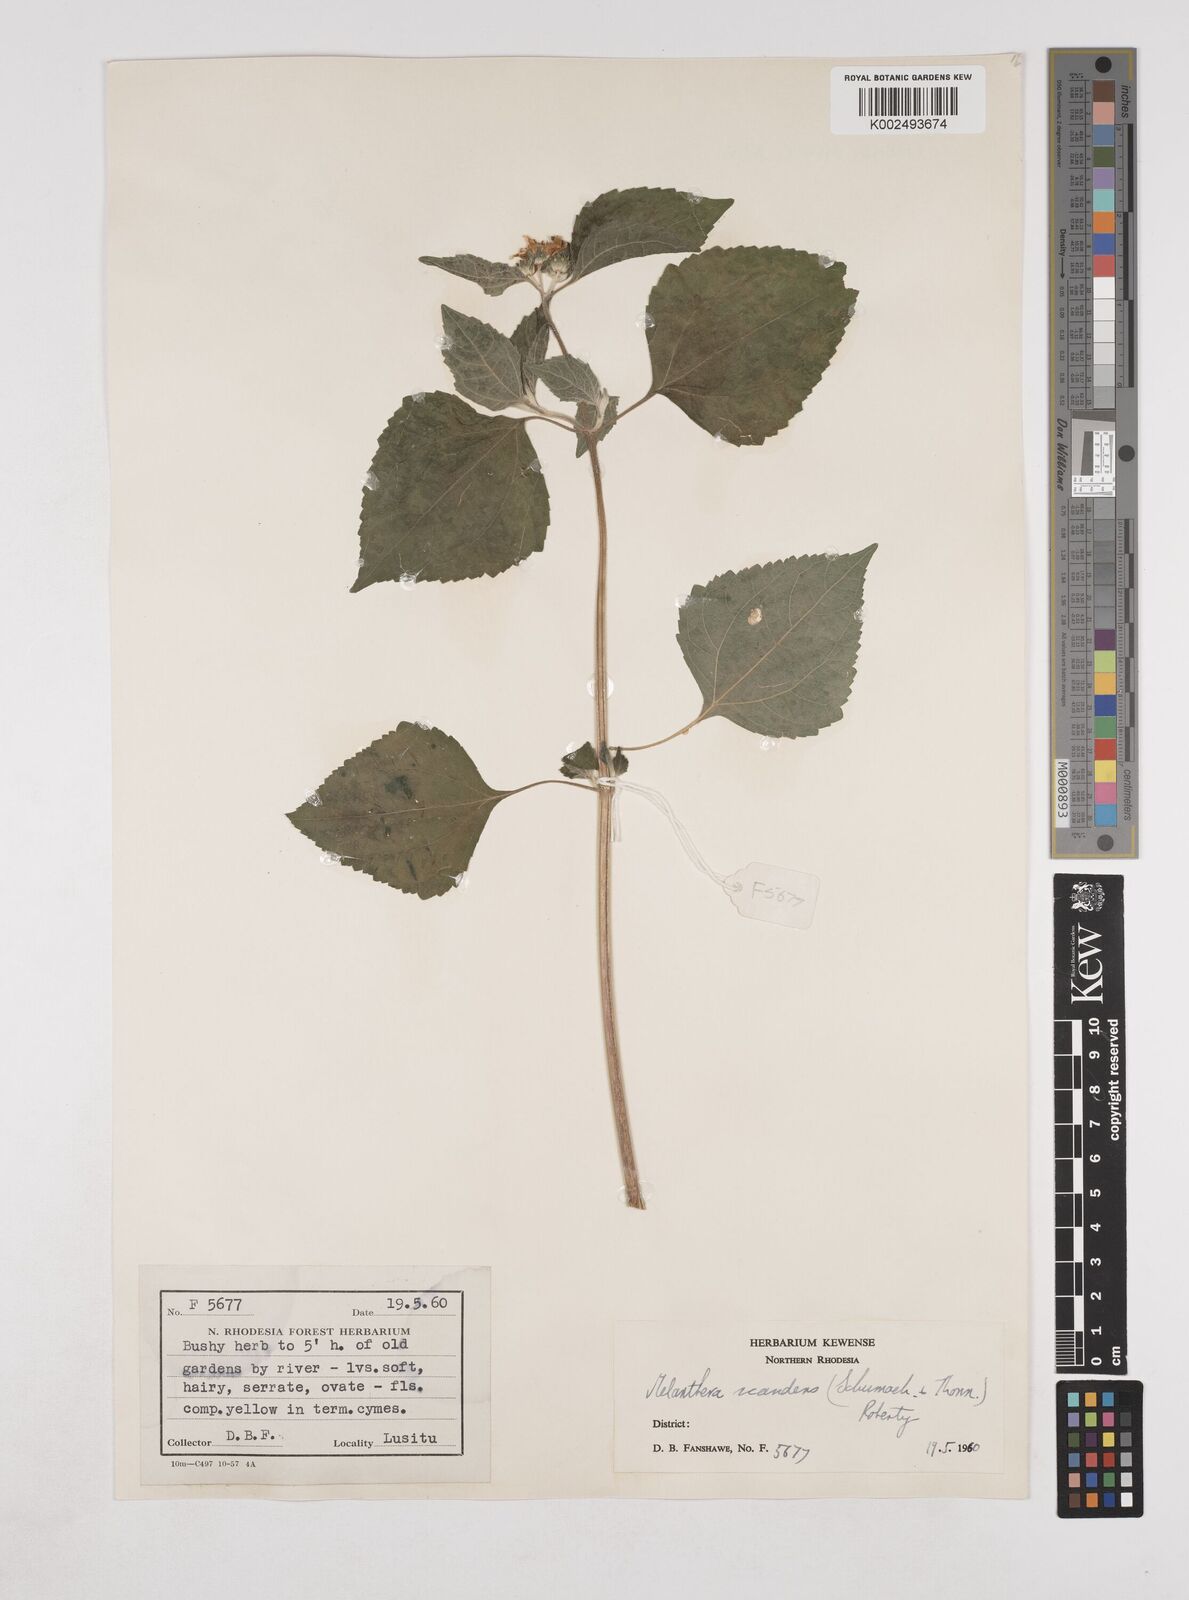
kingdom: Plantae
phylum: Tracheophyta
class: Magnoliopsida
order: Asterales
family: Asteraceae
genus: Lipotriche
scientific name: Lipotriche marlothiana
